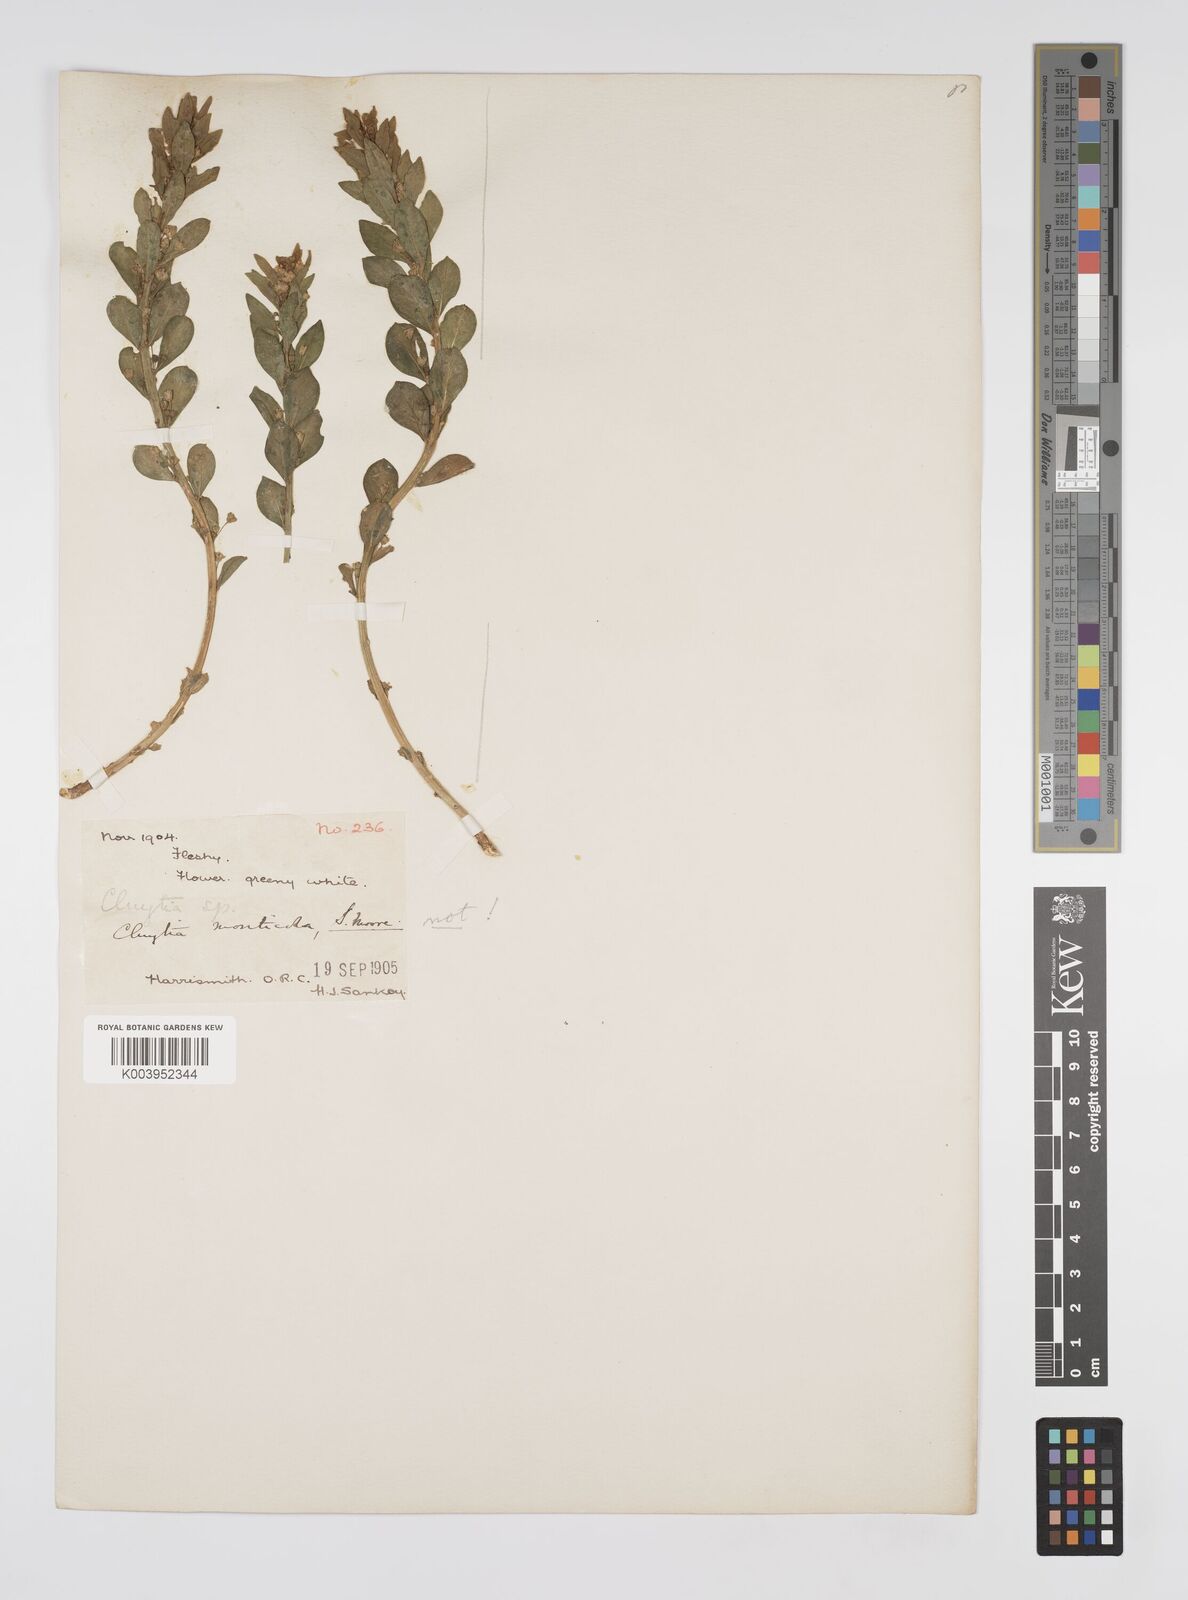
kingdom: Plantae
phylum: Tracheophyta
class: Magnoliopsida
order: Malpighiales
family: Peraceae
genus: Clutia
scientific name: Clutia monticola
